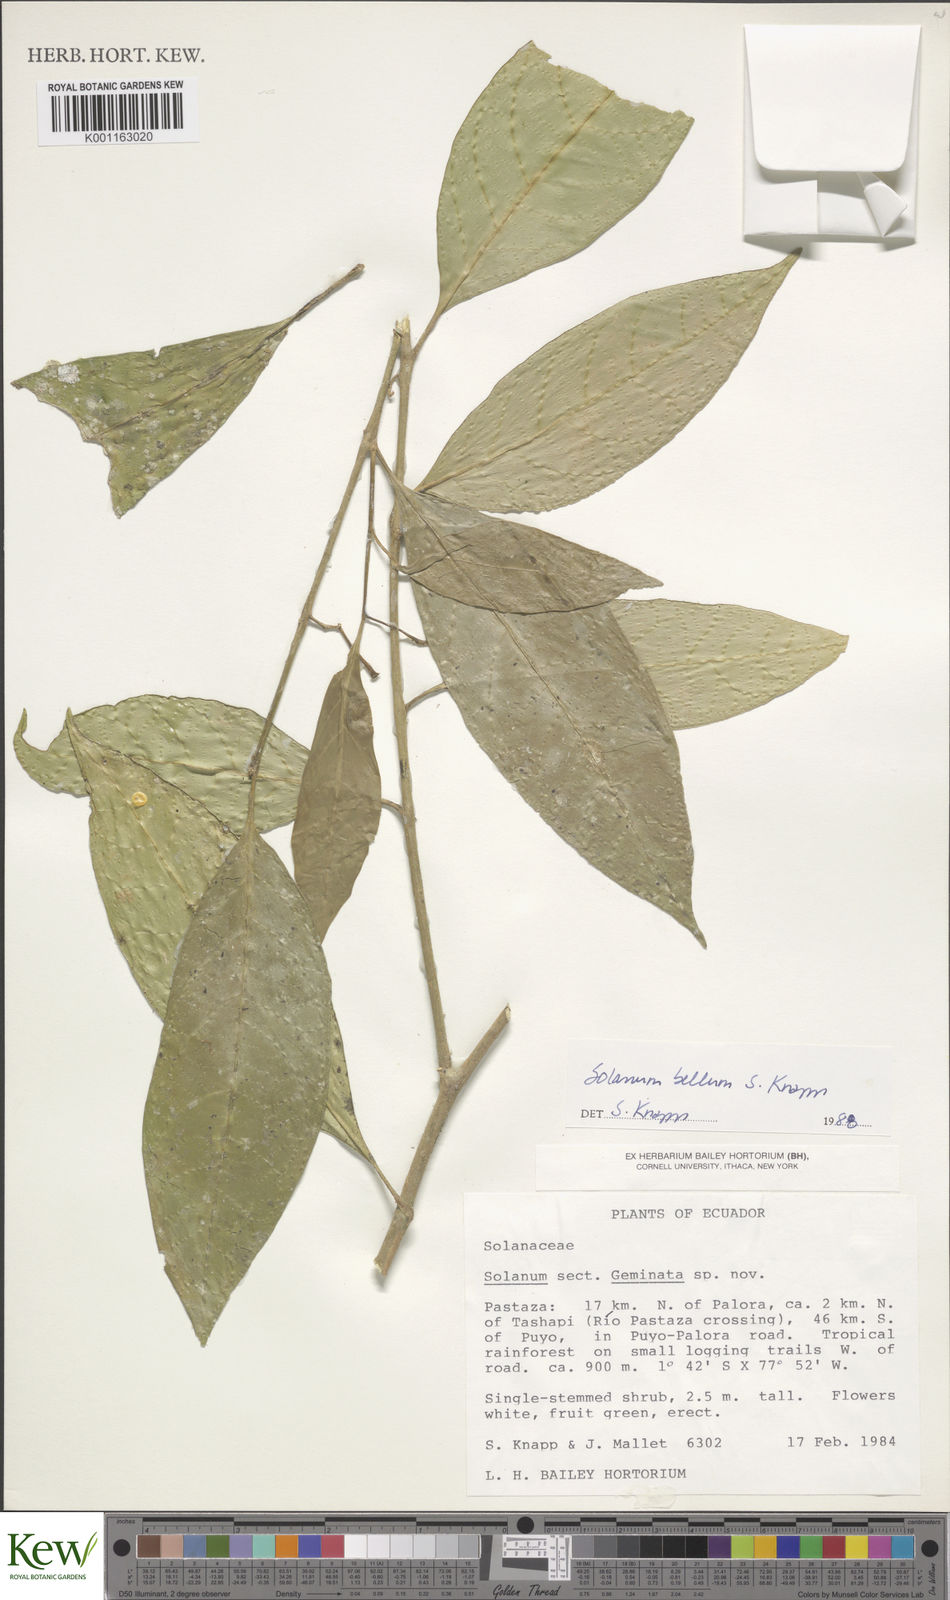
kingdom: Plantae
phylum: Tracheophyta
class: Magnoliopsida
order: Solanales
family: Solanaceae
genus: Solanum
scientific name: Solanum bellum
